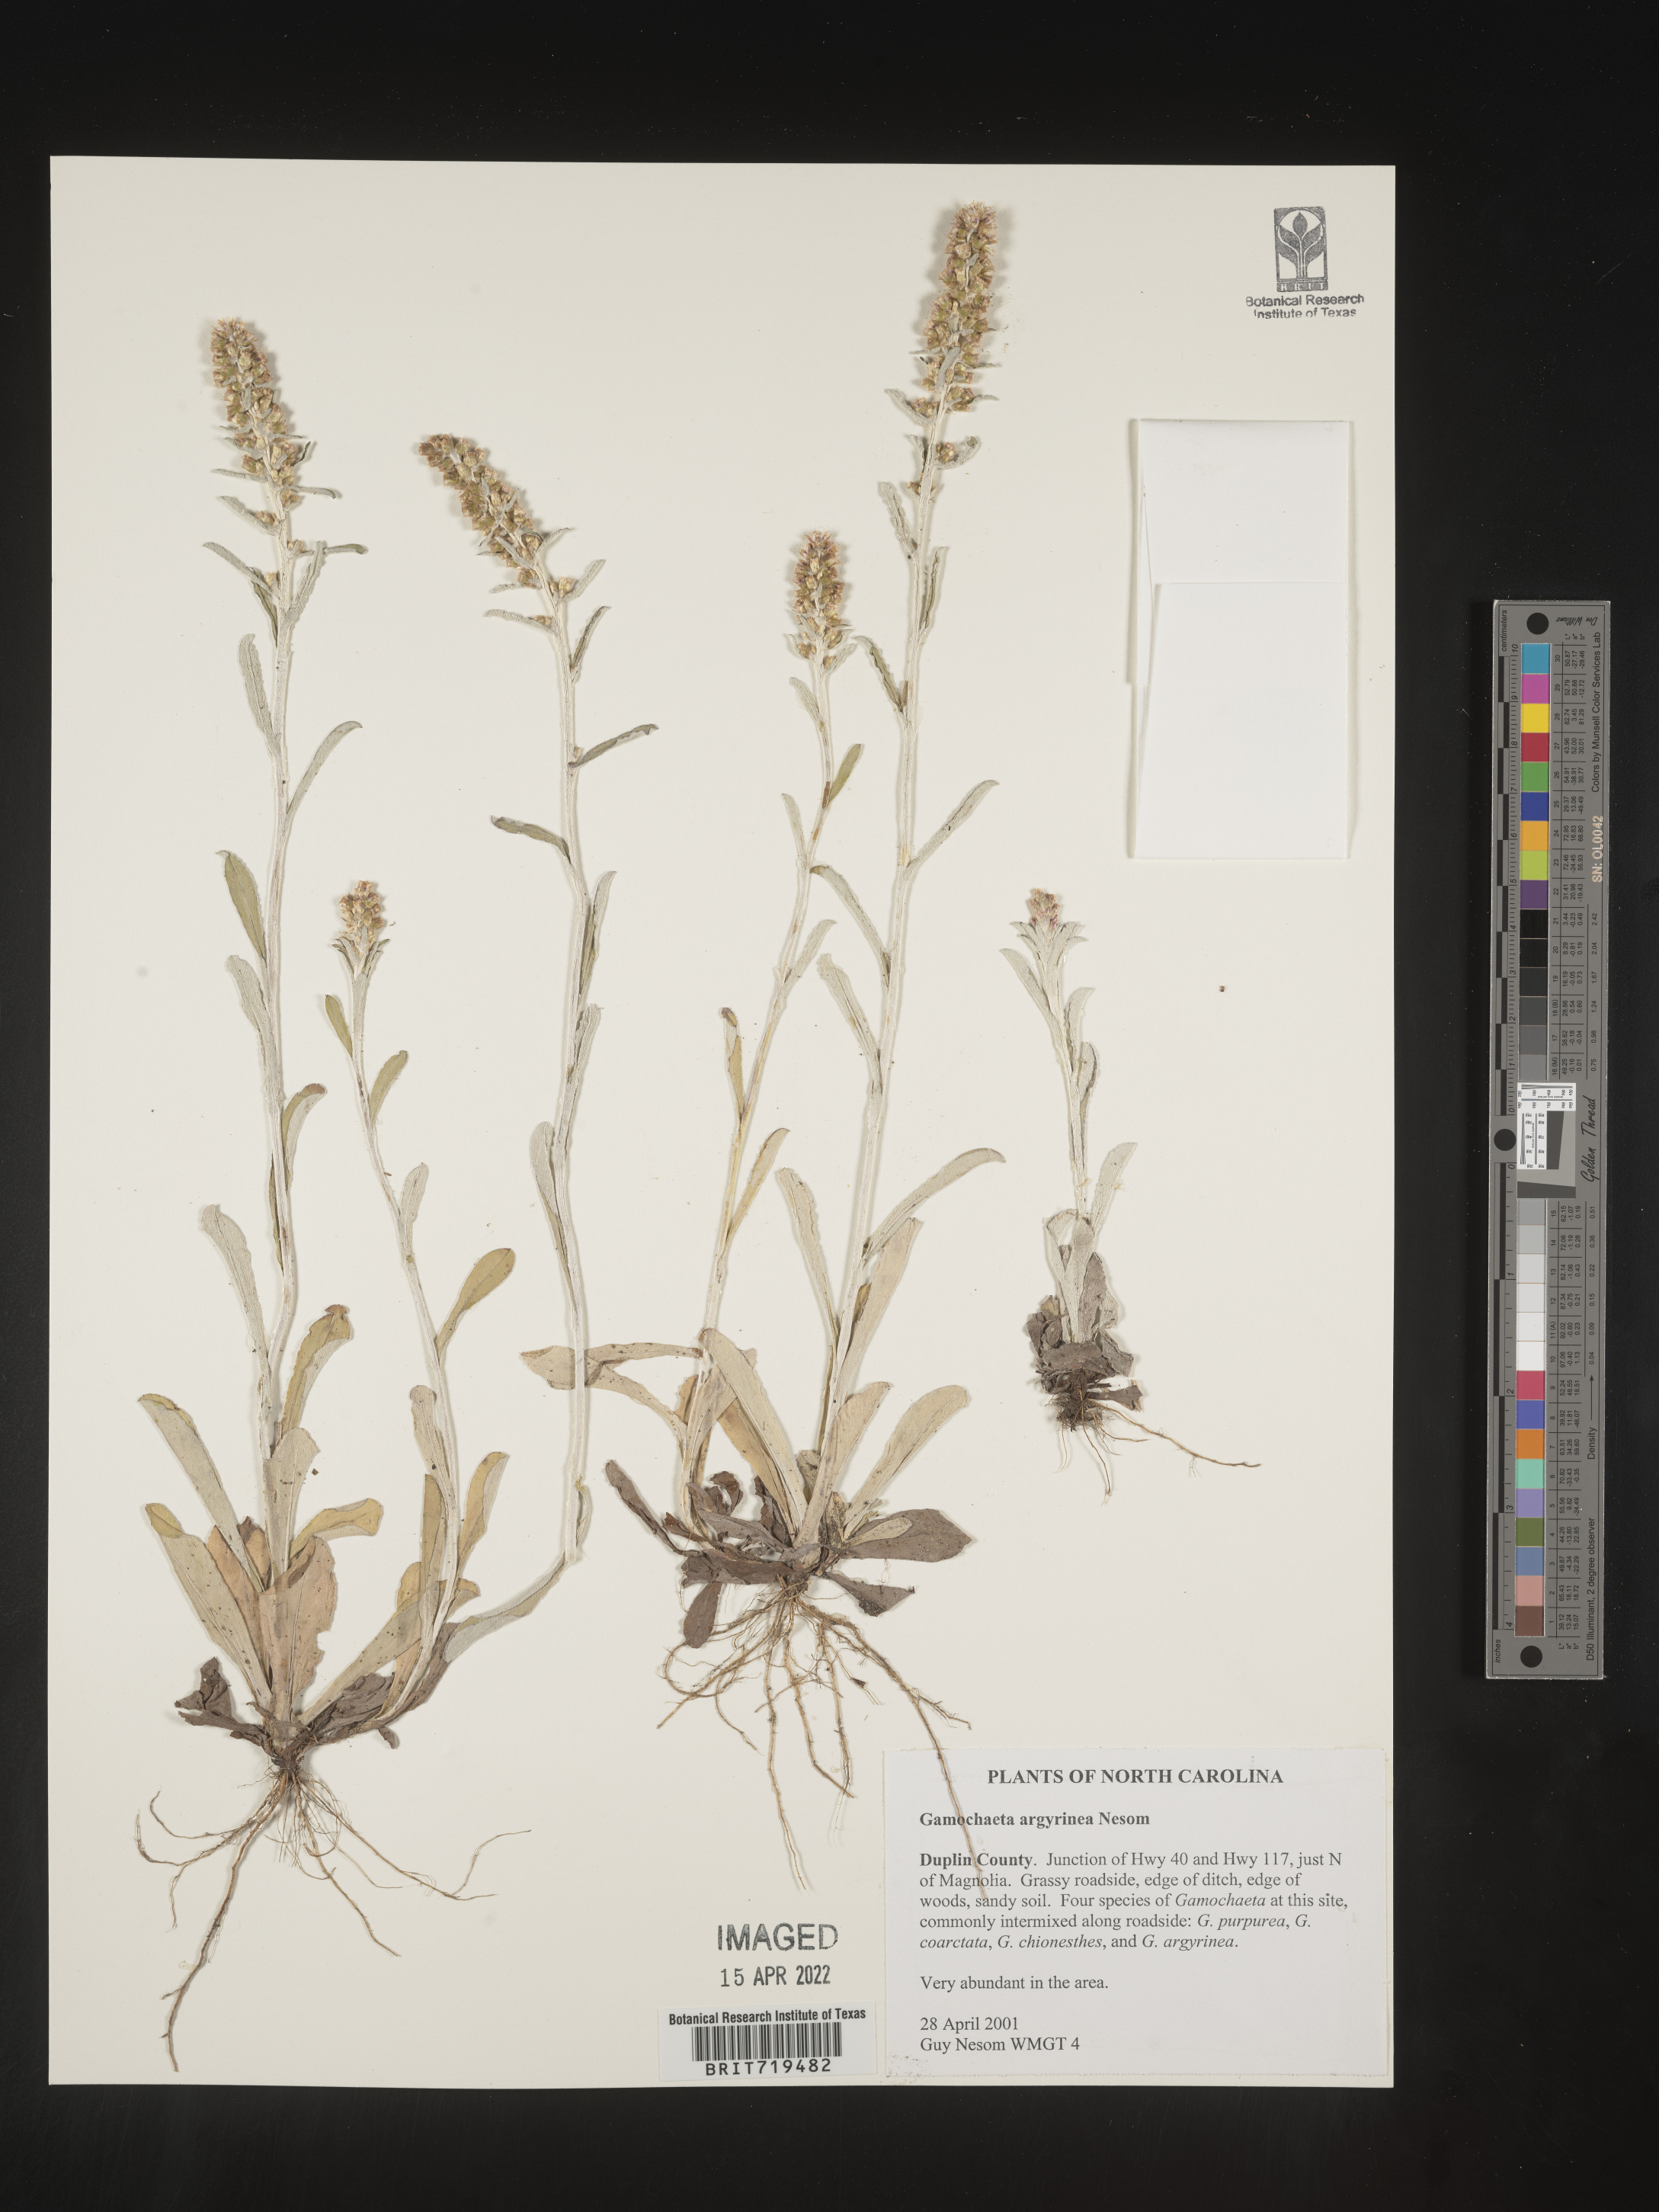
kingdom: Plantae
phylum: Tracheophyta
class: Magnoliopsida
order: Asterales
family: Asteraceae
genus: Gamochaeta
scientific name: Gamochaeta argyrinea
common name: Silvery cudweed
